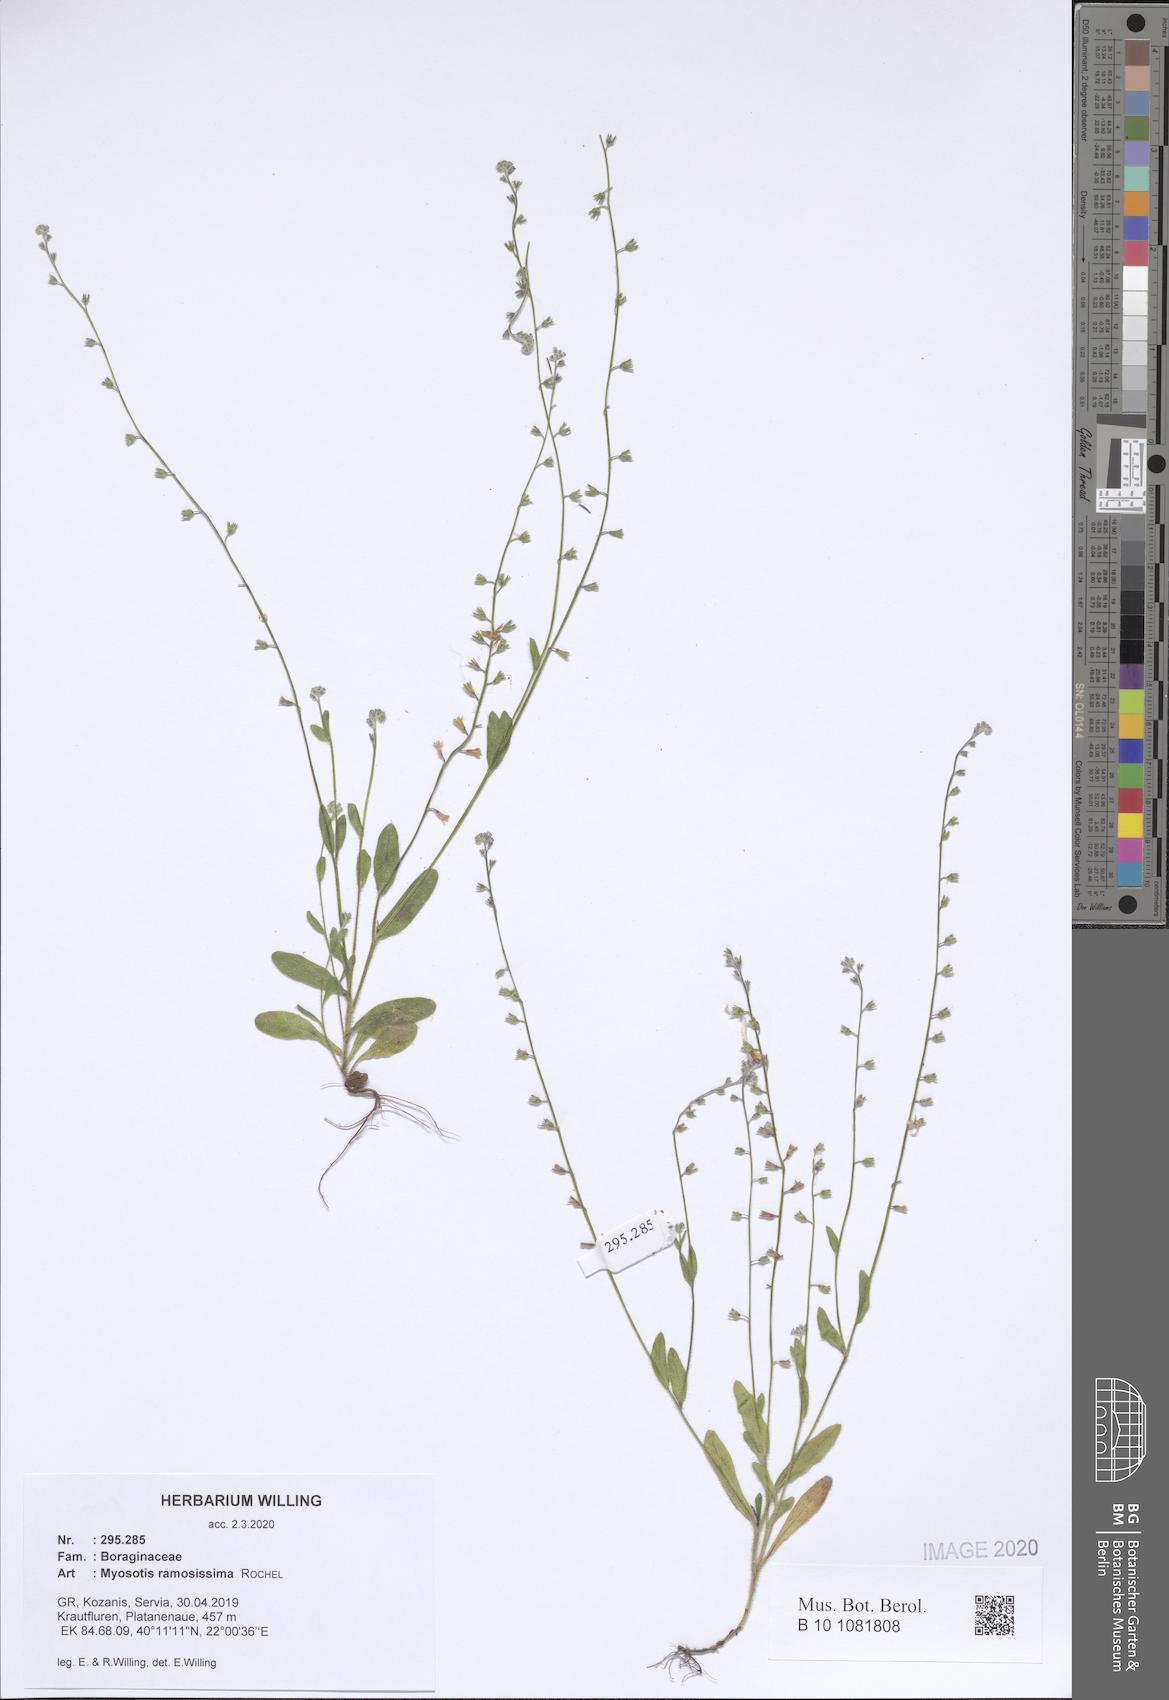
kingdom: Plantae
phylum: Tracheophyta
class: Magnoliopsida
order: Boraginales
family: Boraginaceae
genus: Myosotis
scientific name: Myosotis ramosissima
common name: Early forget-me-not
